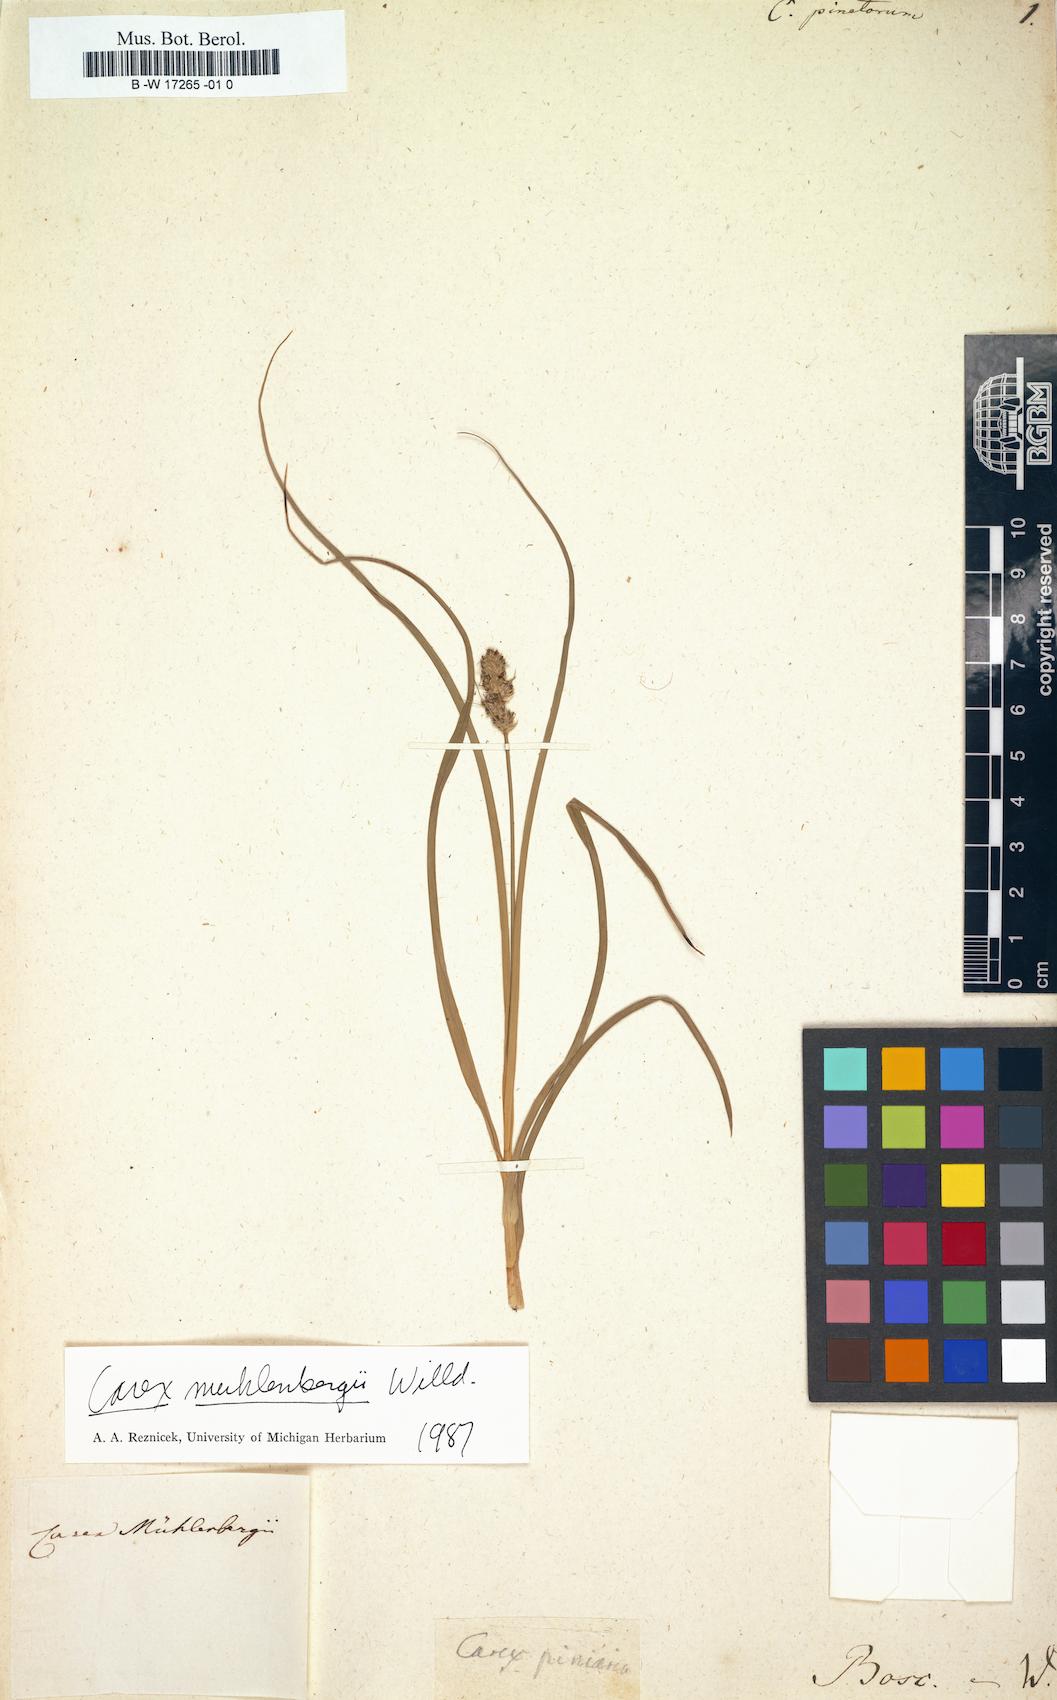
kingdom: Plantae
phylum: Tracheophyta
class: Liliopsida
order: Poales
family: Cyperaceae
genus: Carex
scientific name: Carex peucophila
